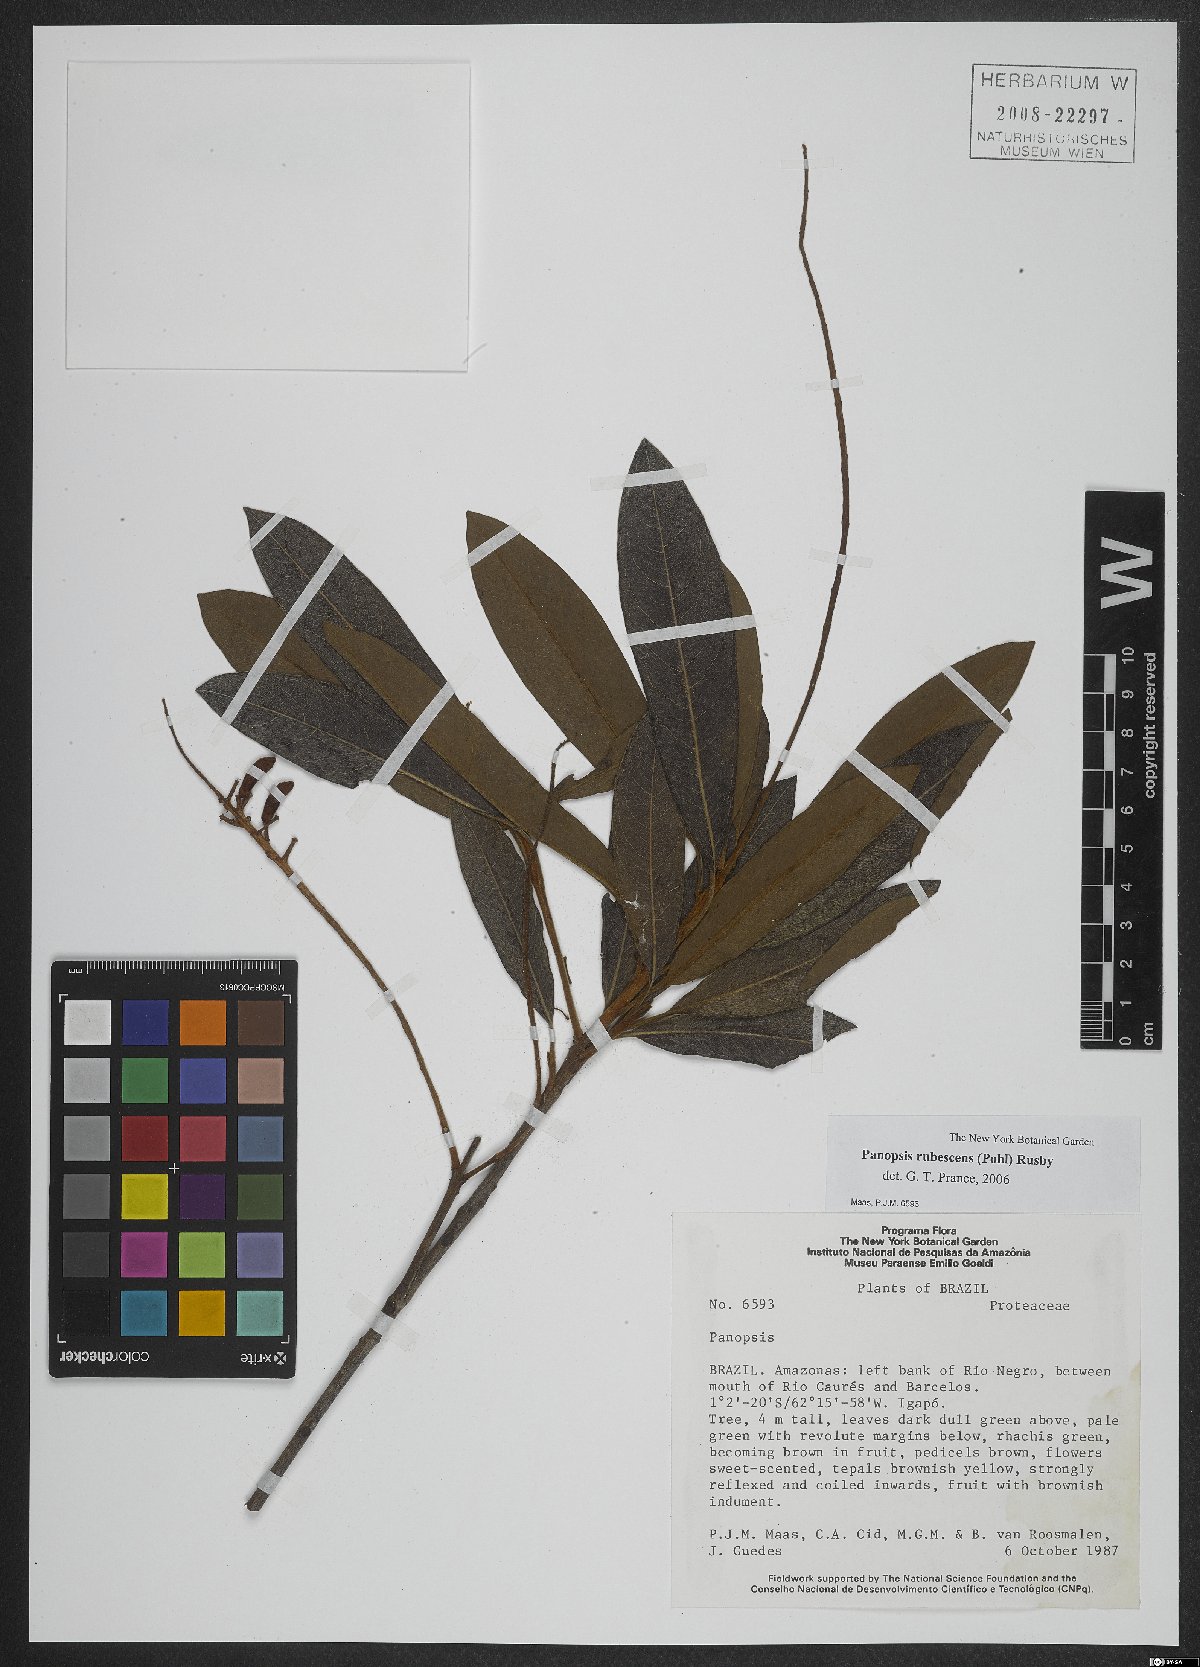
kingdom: Plantae
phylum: Tracheophyta
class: Magnoliopsida
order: Proteales
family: Proteaceae
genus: Panopsis
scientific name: Panopsis rubescens
